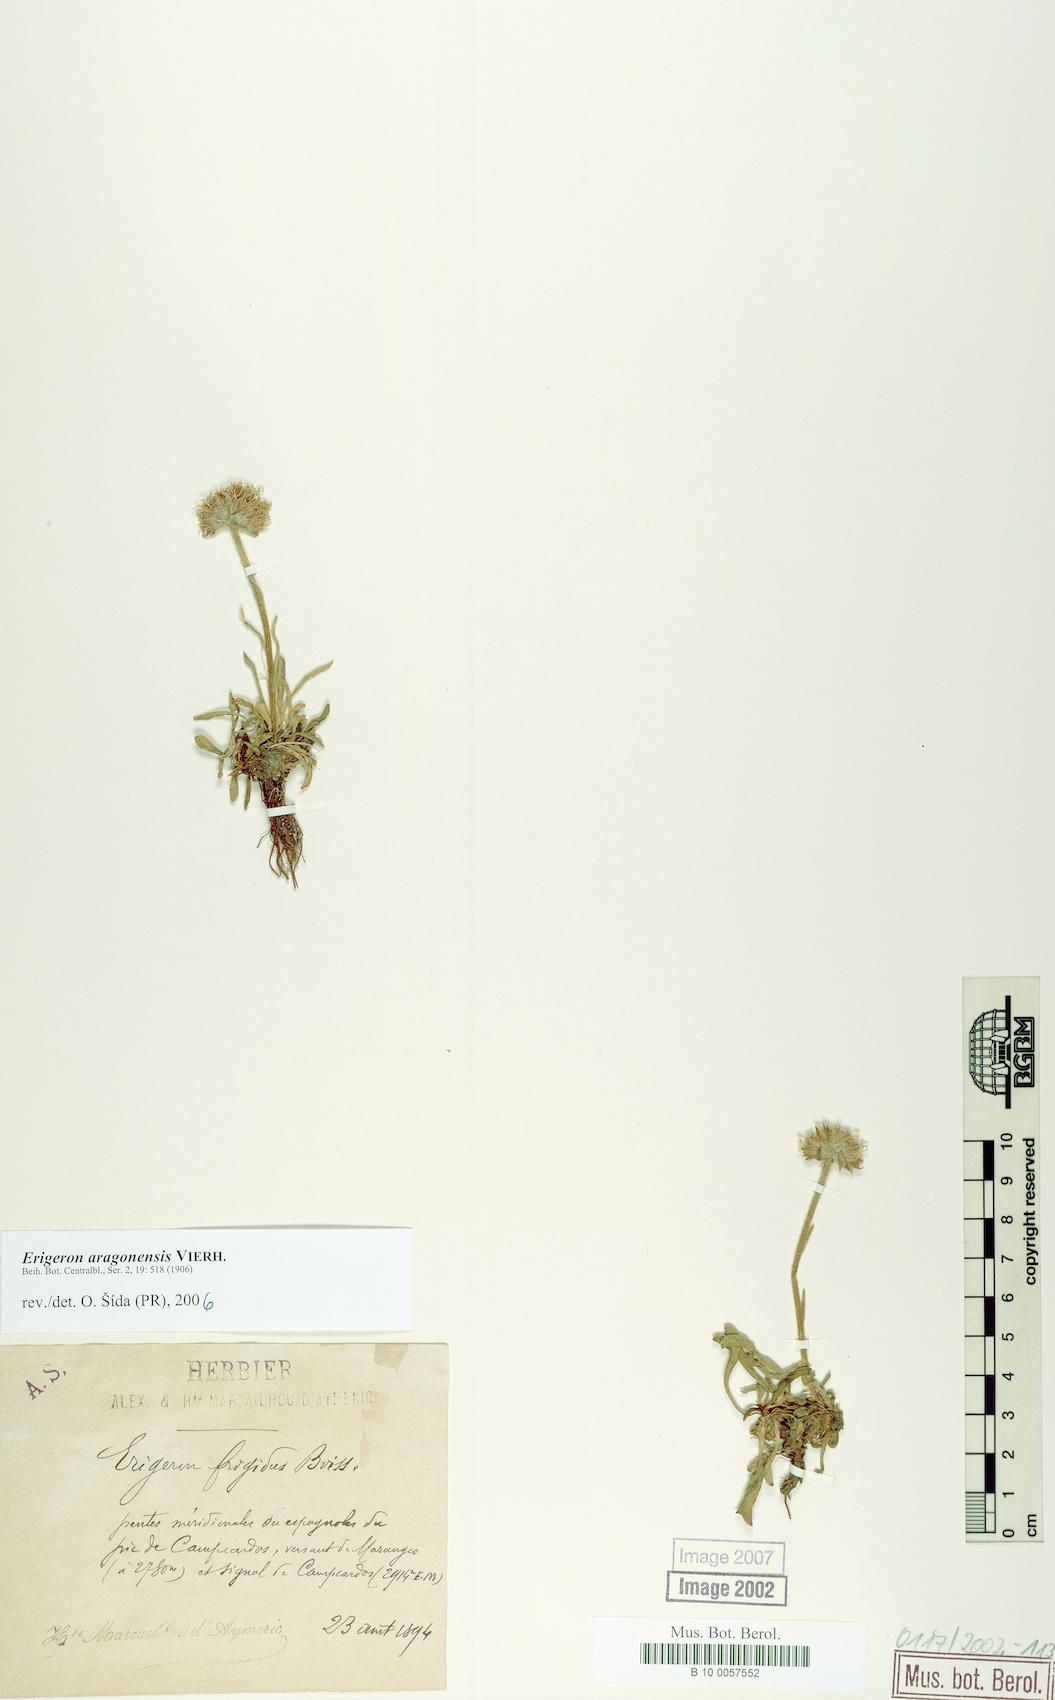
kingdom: Plantae
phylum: Tracheophyta
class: Magnoliopsida
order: Asterales
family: Asteraceae
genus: Erigeron
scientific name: Erigeron aragonensis
